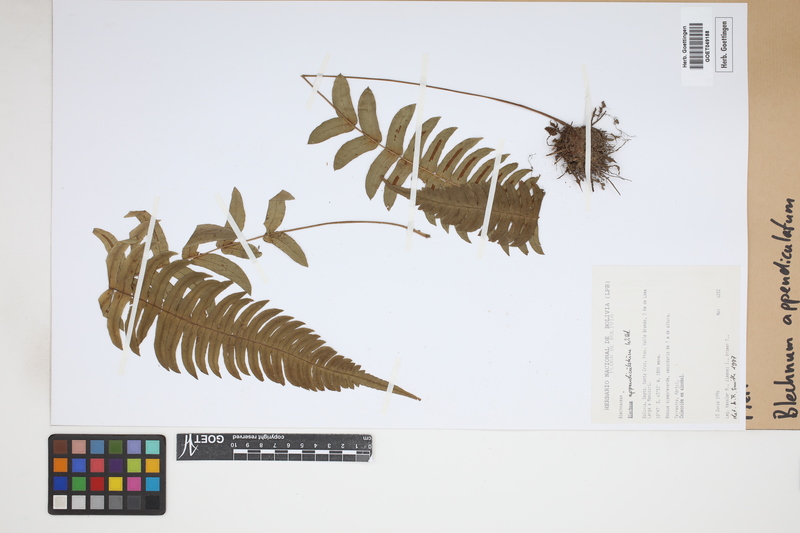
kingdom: Plantae
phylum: Tracheophyta
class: Polypodiopsida
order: Polypodiales
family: Blechnaceae
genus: Blechnum
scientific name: Blechnum appendiculatum
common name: Palm fern
